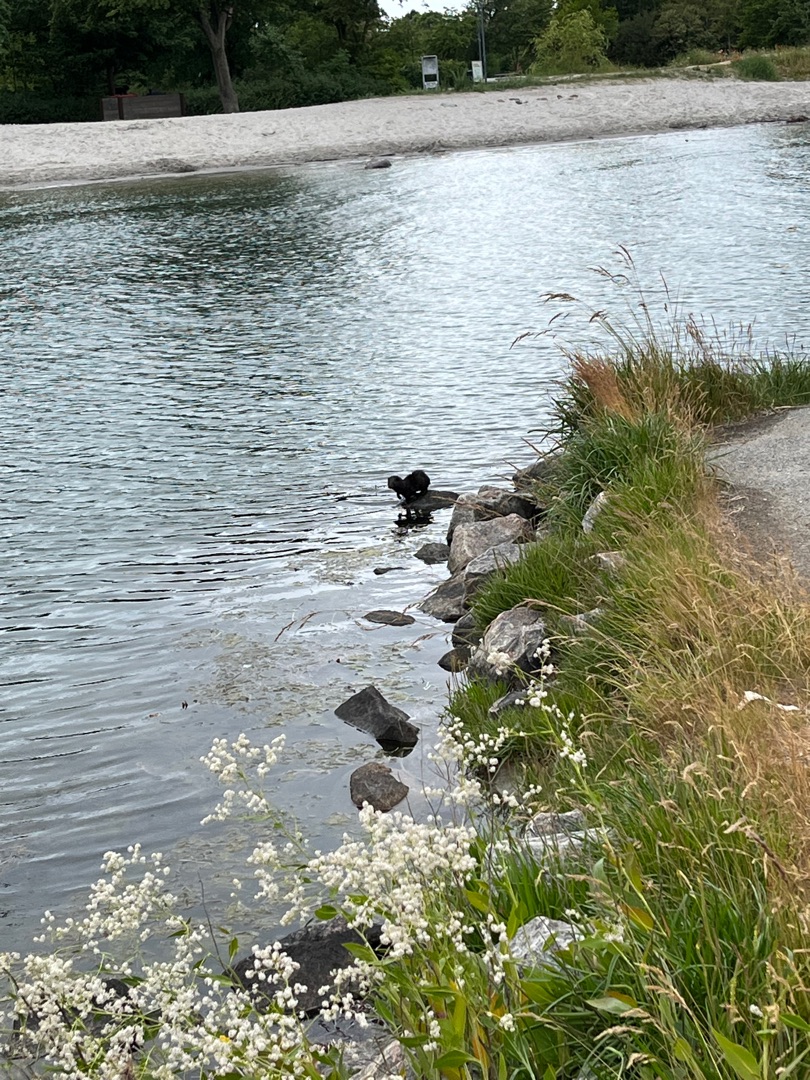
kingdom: Animalia
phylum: Chordata
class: Mammalia
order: Carnivora
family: Mustelidae
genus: Mustela
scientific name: Mustela vison
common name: Mink
